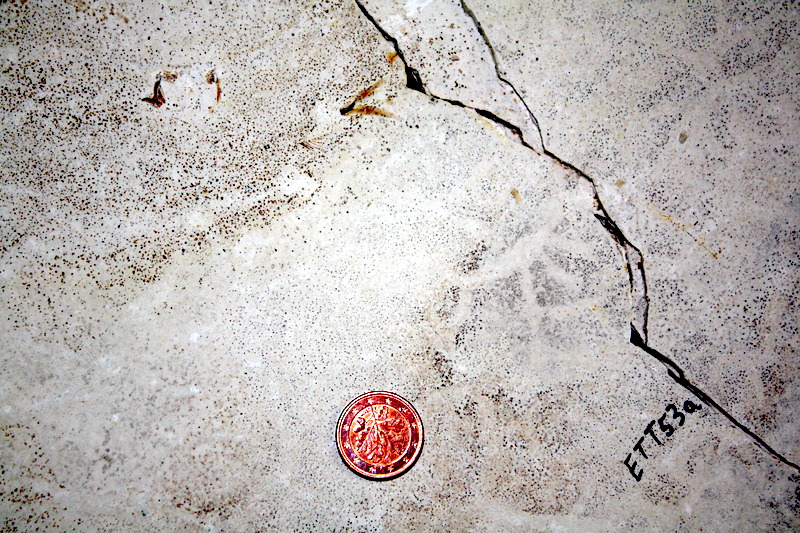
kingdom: Animalia
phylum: Chordata
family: Ascalaboidae
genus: Ebertichthys
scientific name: Ebertichthys ettlingensis
